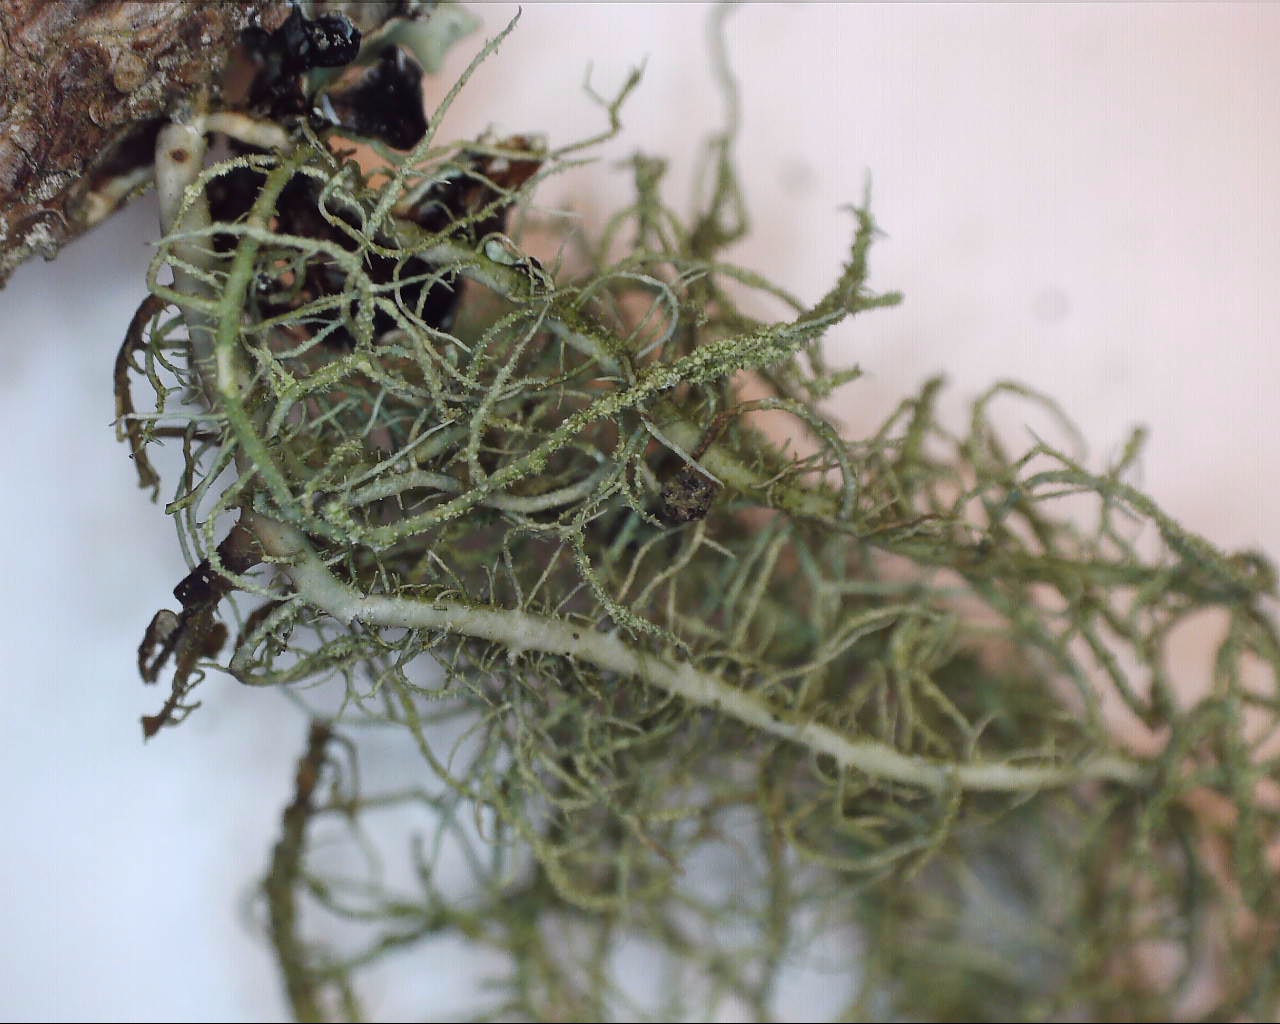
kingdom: Fungi
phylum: Ascomycota
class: Lecanoromycetes
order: Lecanorales
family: Parmeliaceae
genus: Usnea
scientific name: Usnea hirta
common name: liden skæglav
